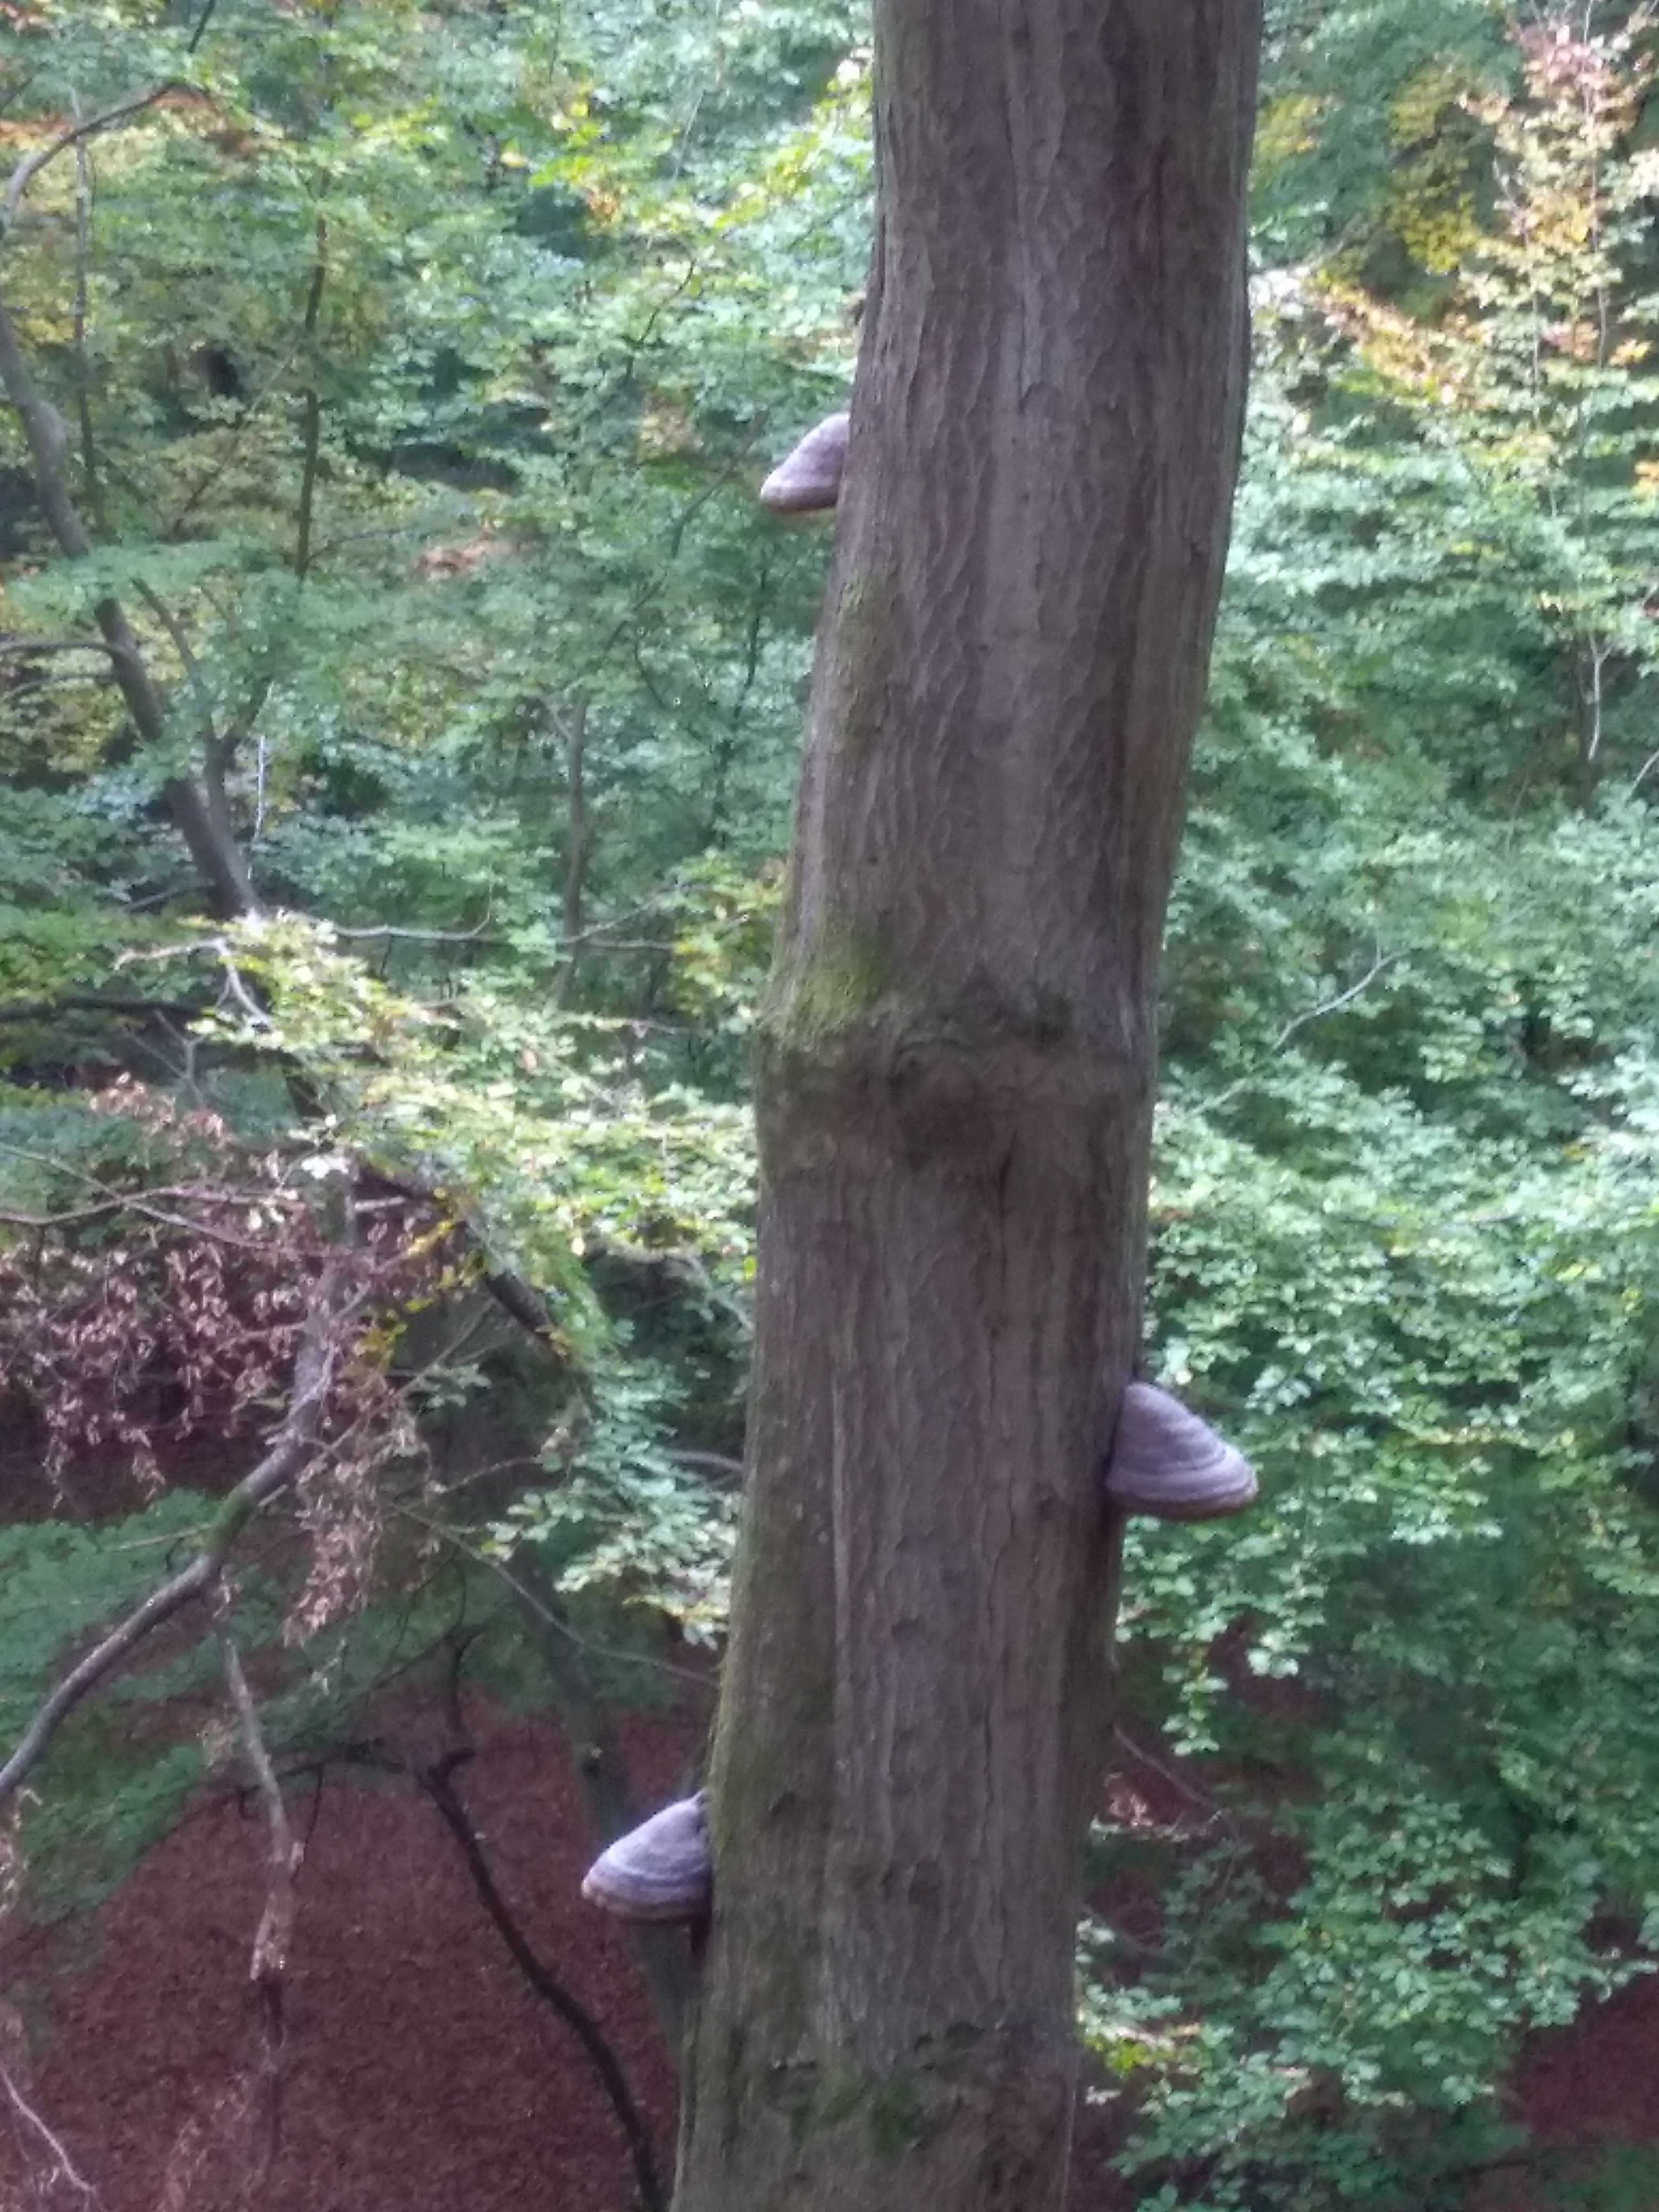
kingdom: Fungi
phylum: Basidiomycota
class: Agaricomycetes
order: Polyporales
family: Polyporaceae
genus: Fomes
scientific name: Fomes fomentarius
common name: tøndersvamp
